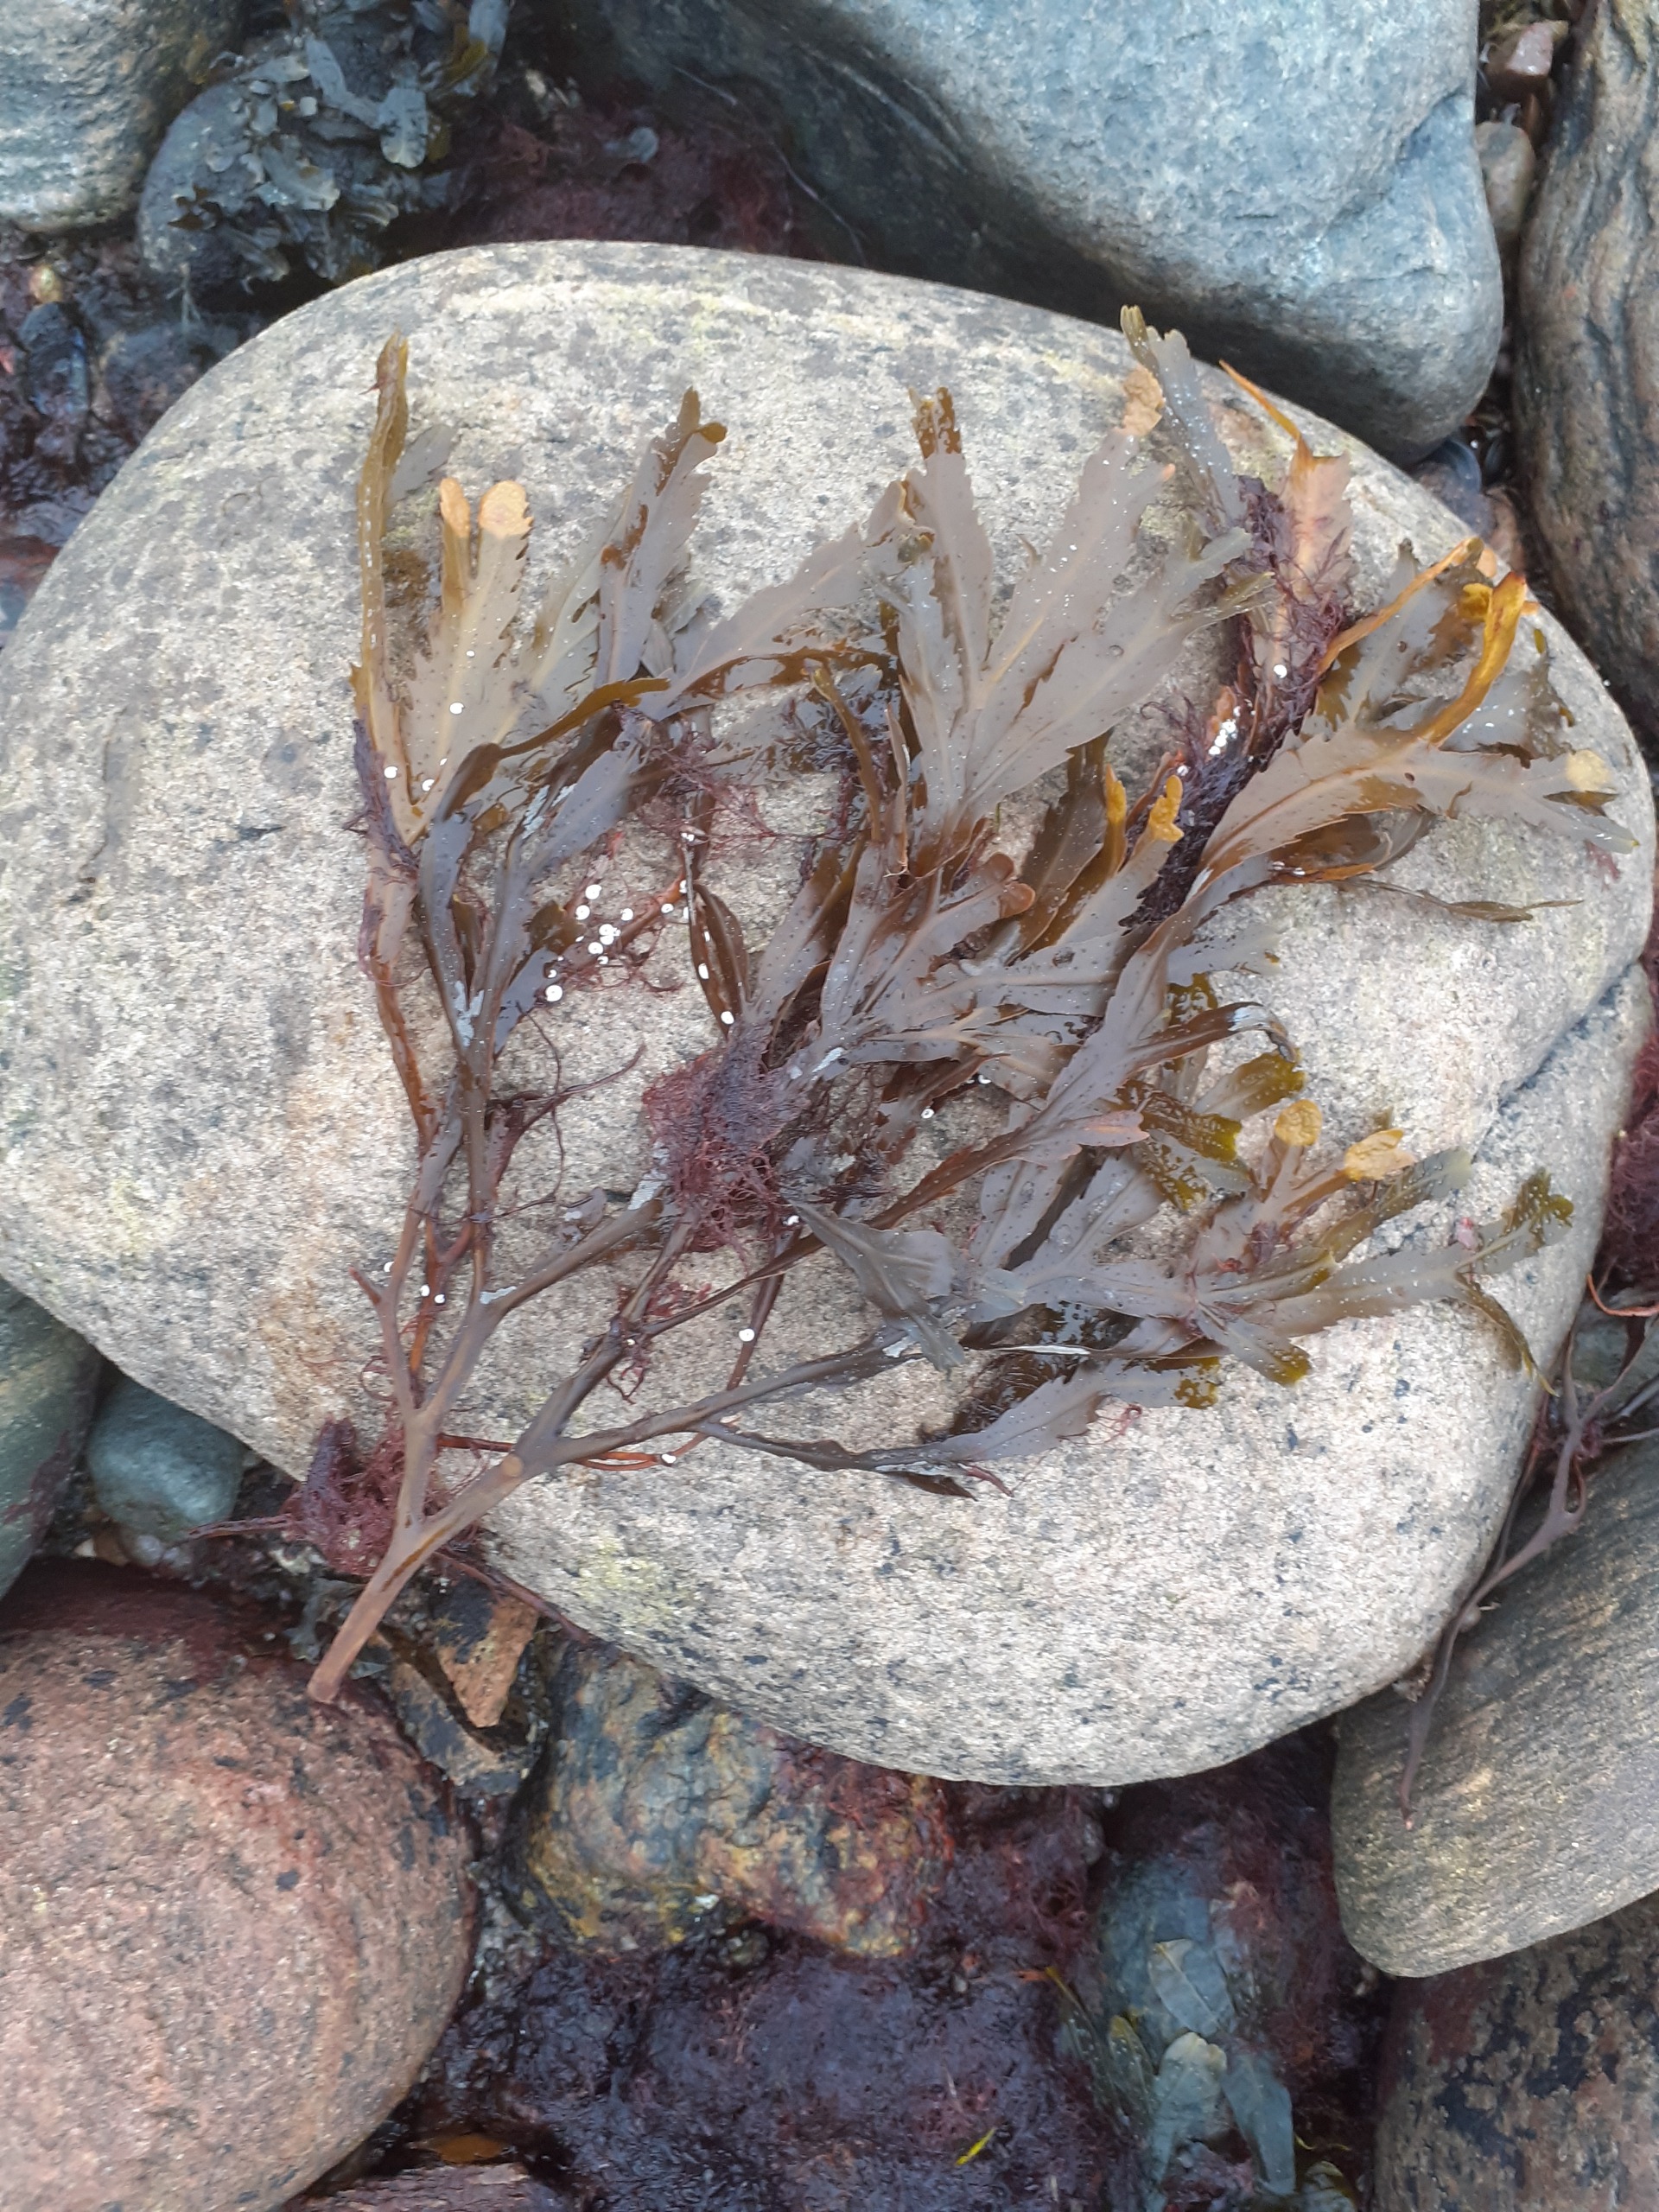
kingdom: Chromista
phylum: Ochrophyta
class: Phaeophyceae
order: Fucales
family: Fucaceae
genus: Fucus
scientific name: Fucus serratus
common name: Savtang
